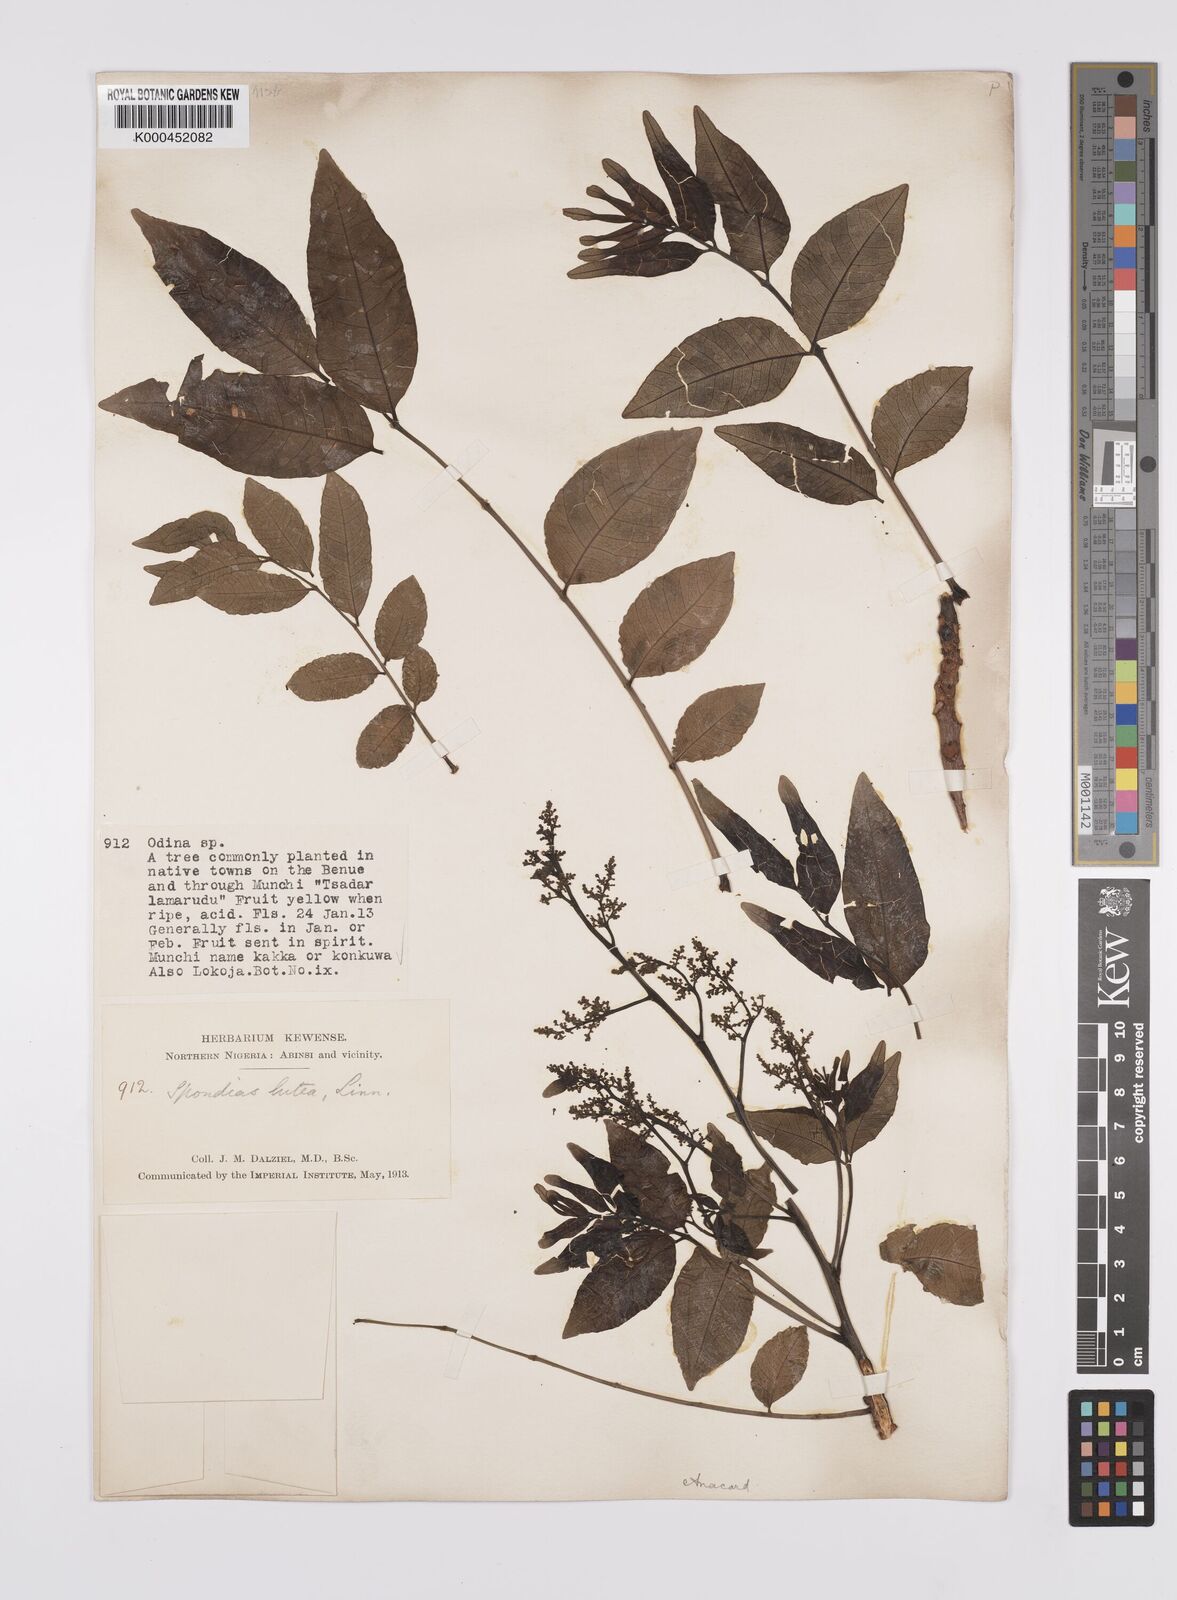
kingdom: Plantae
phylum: Tracheophyta
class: Magnoliopsida
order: Sapindales
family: Anacardiaceae
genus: Spondias
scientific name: Spondias mombin
